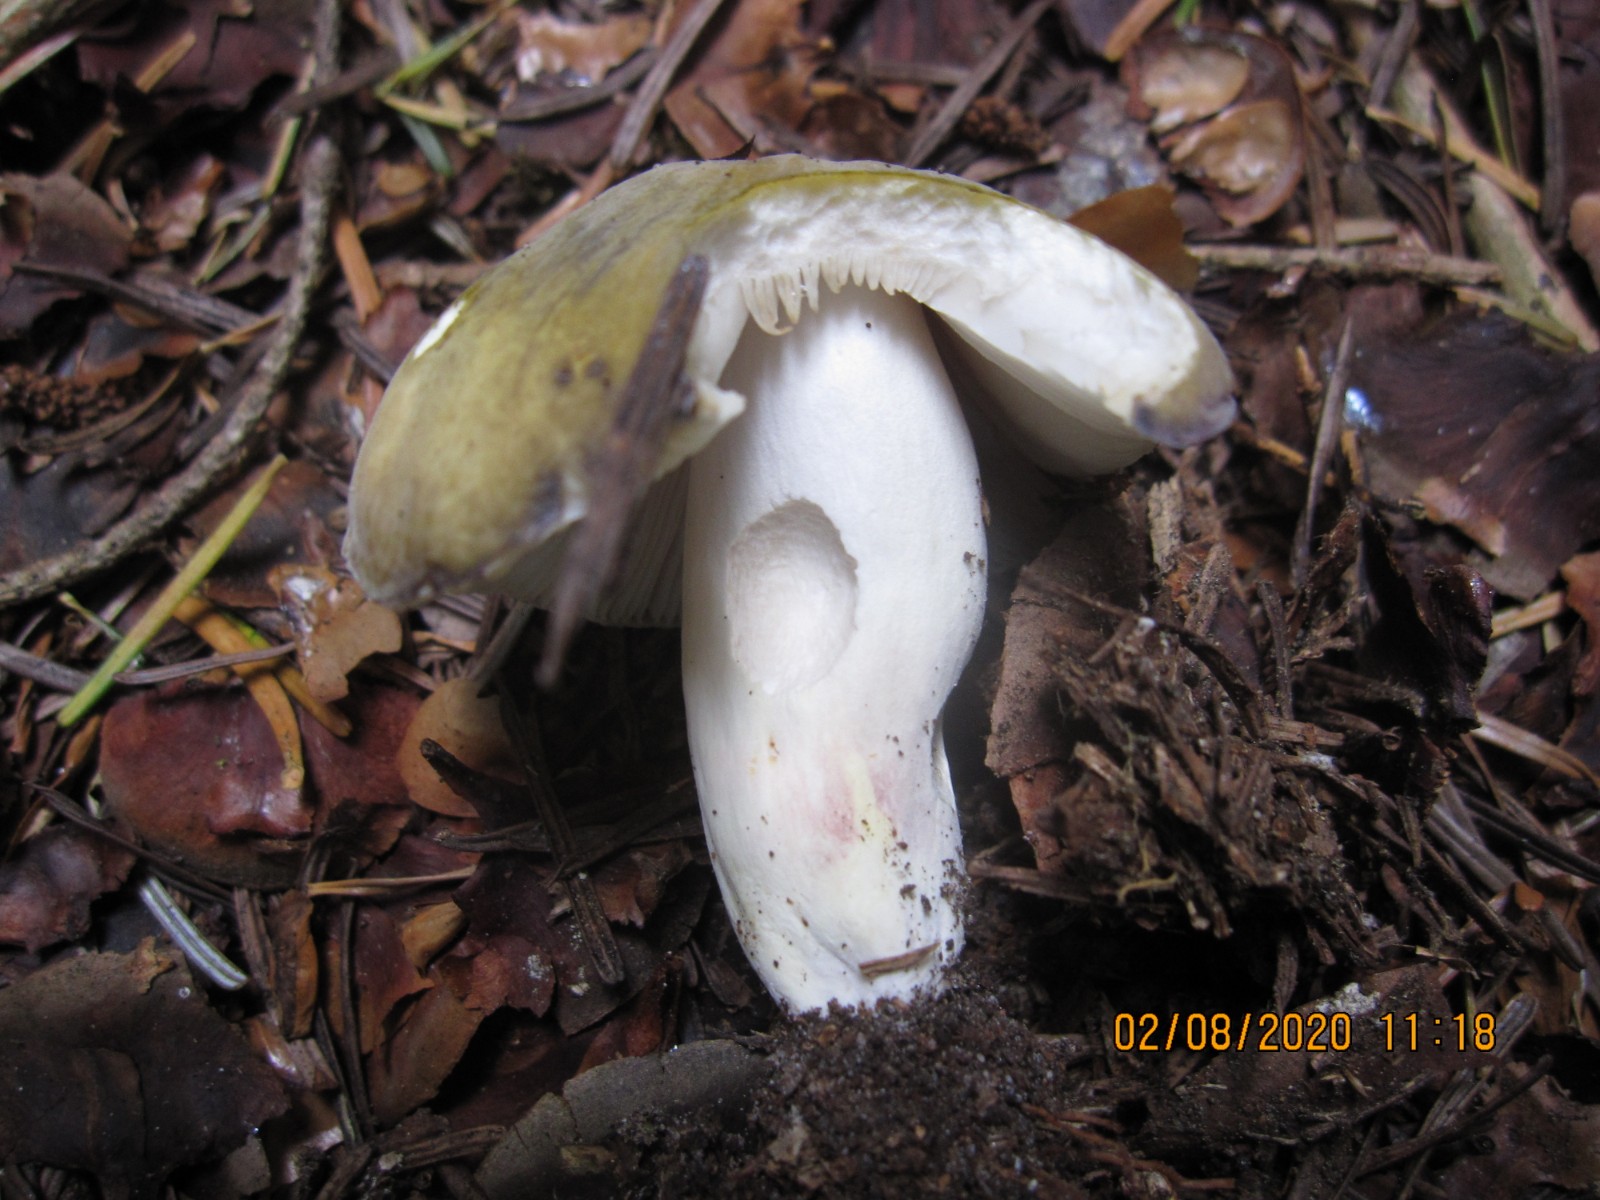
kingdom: Fungi
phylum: Basidiomycota
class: Agaricomycetes
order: Russulales
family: Russulaceae
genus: Russula
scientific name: Russula violeipes
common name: ferskengul skørhat
